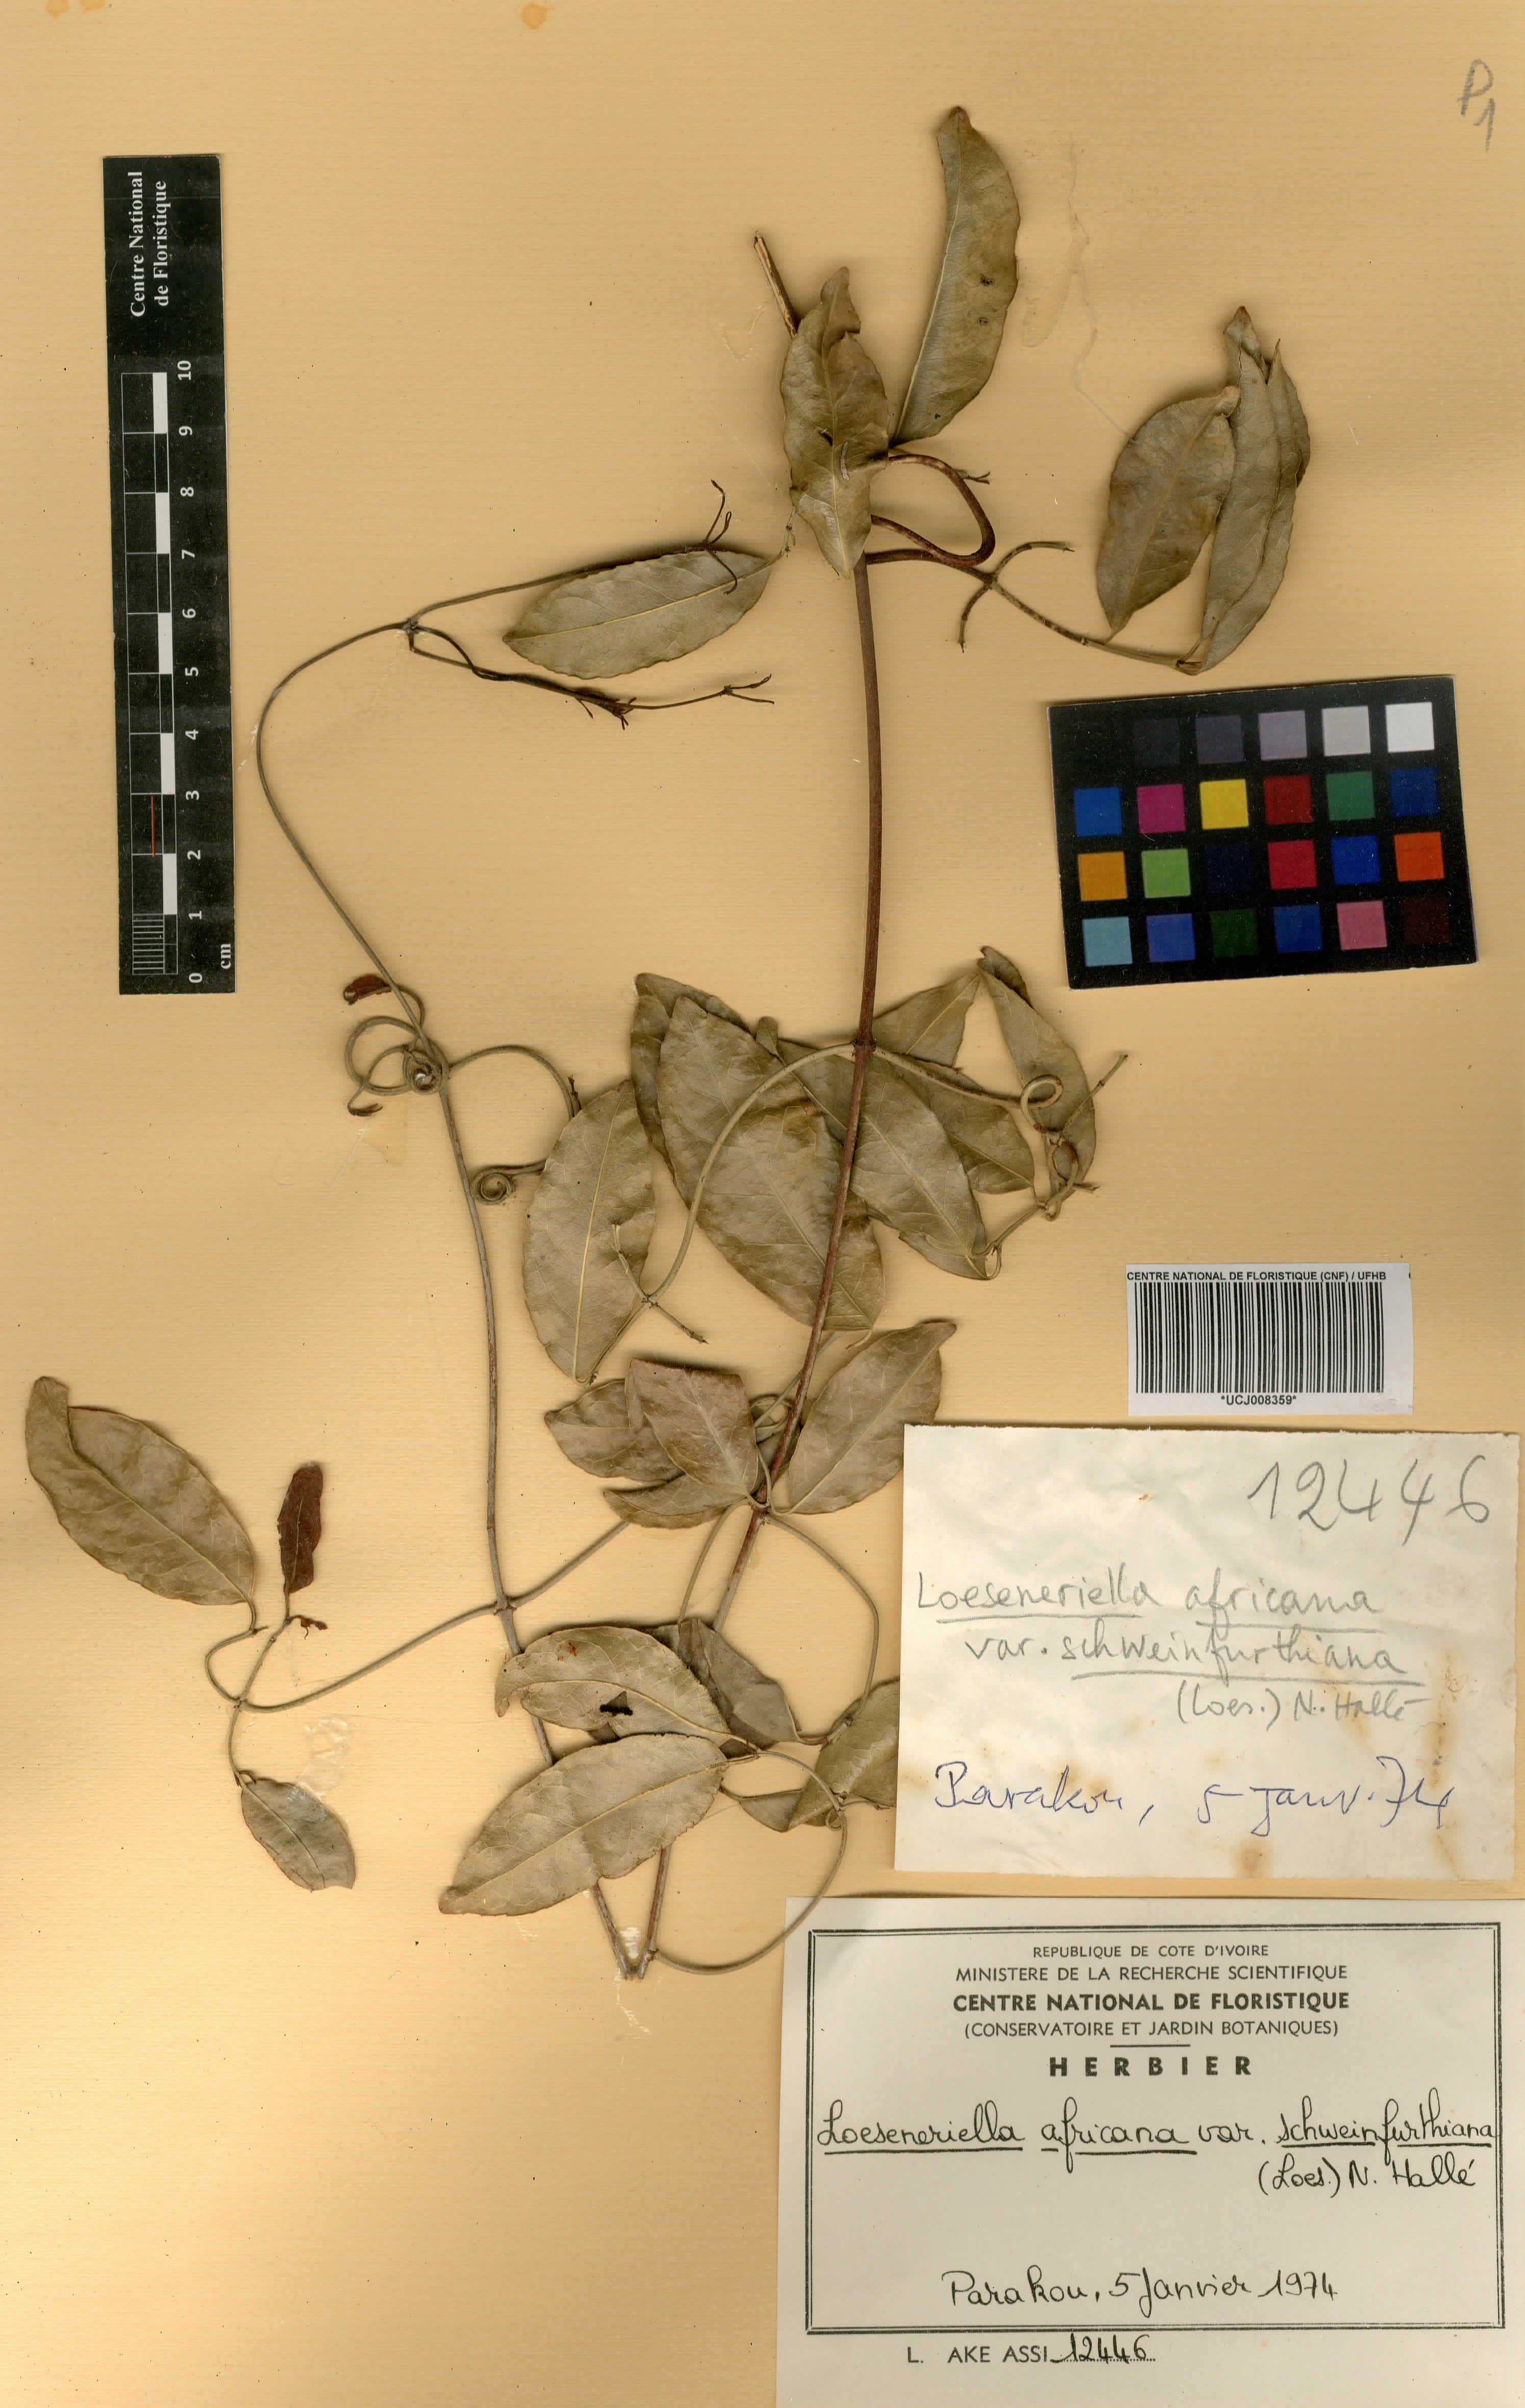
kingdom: Plantae
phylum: Tracheophyta
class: Magnoliopsida
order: Celastrales
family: Celastraceae
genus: Loeseneriella
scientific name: Loeseneriella africana
